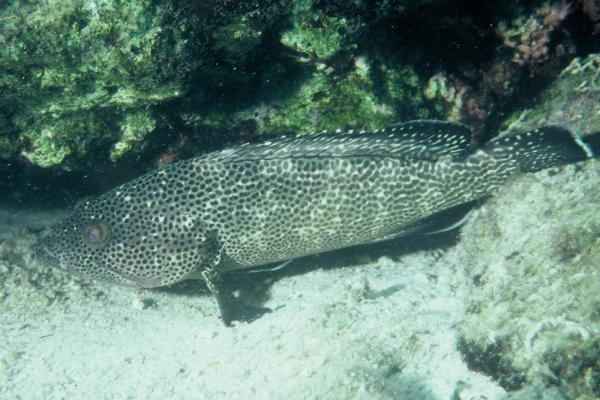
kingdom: Animalia
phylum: Chordata
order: Perciformes
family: Serranidae
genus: Epinephelus
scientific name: Epinephelus socialis
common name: Surge grouper
